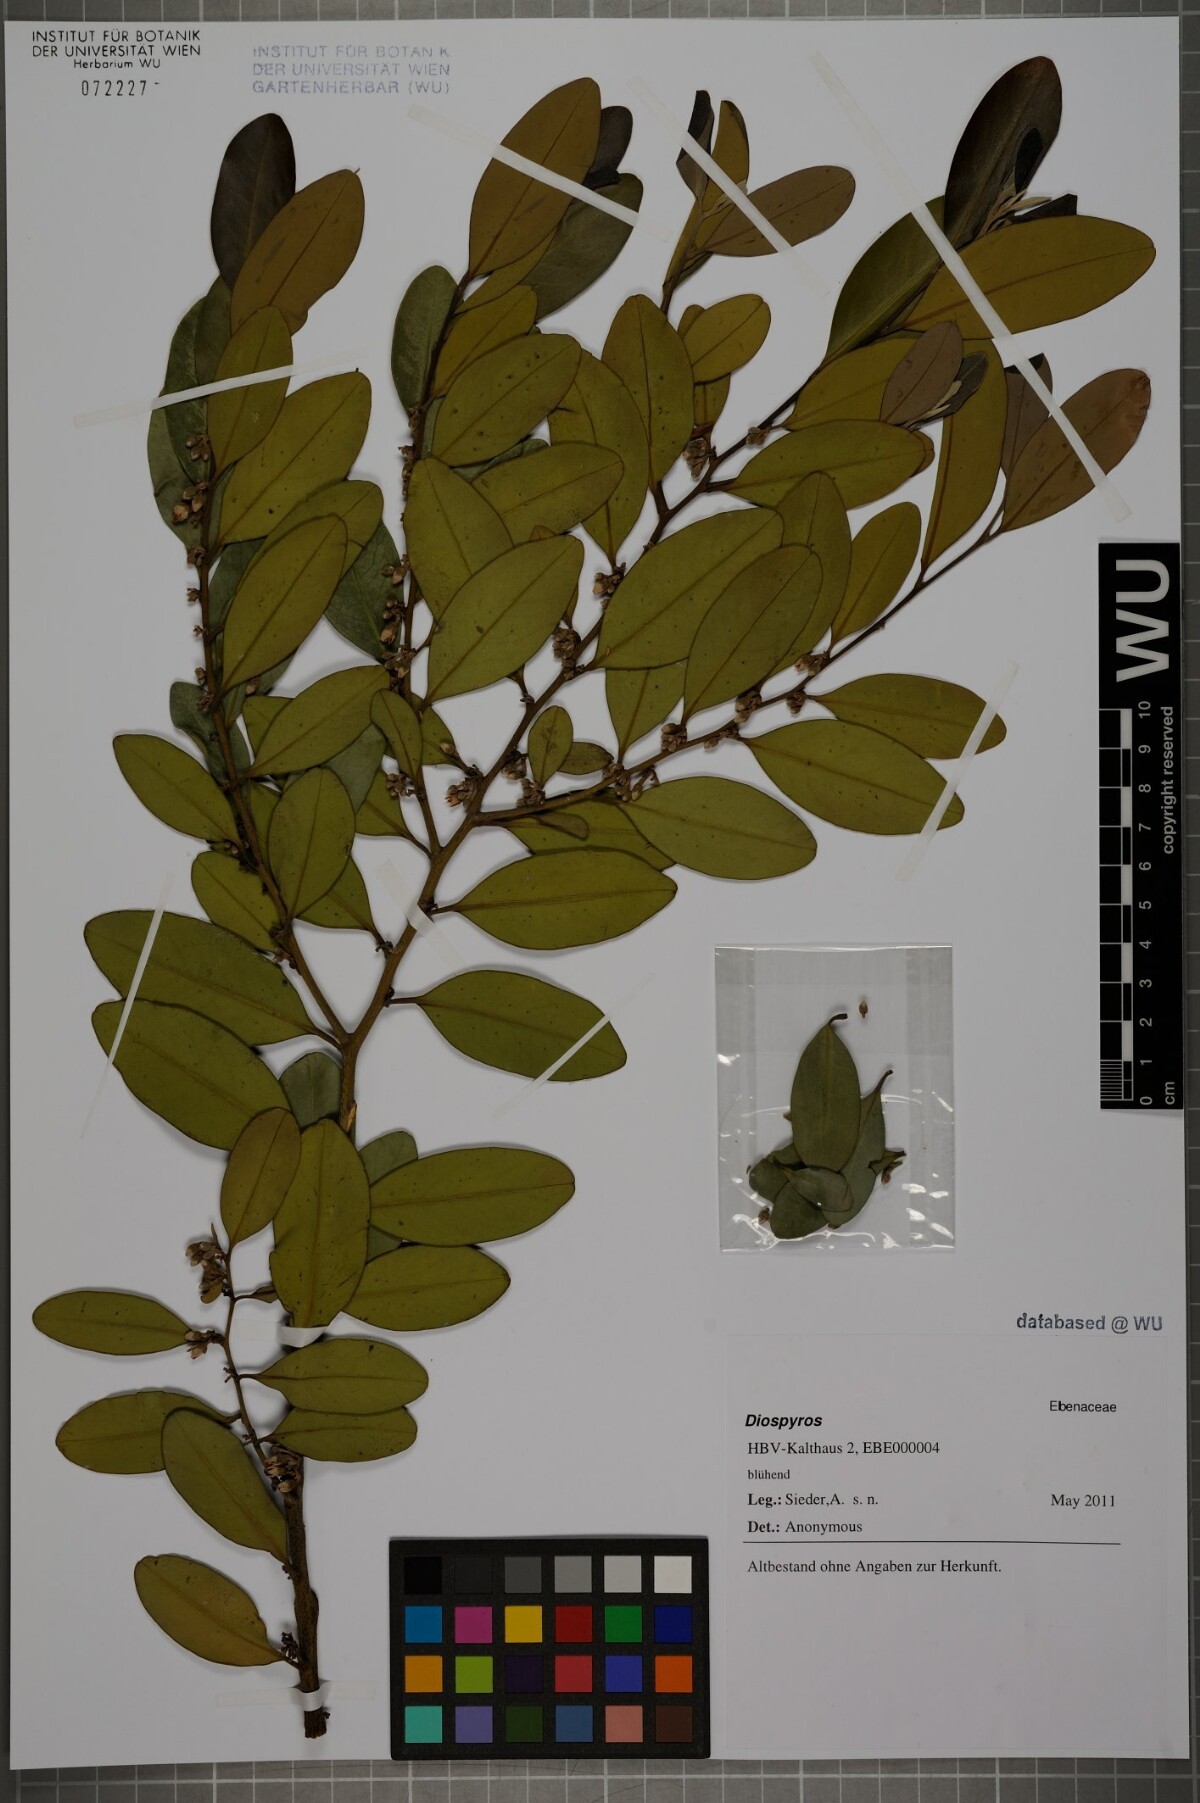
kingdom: Plantae
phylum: Tracheophyta
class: Magnoliopsida
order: Ericales
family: Ebenaceae
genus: Diospyros
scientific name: Diospyros pentamera
